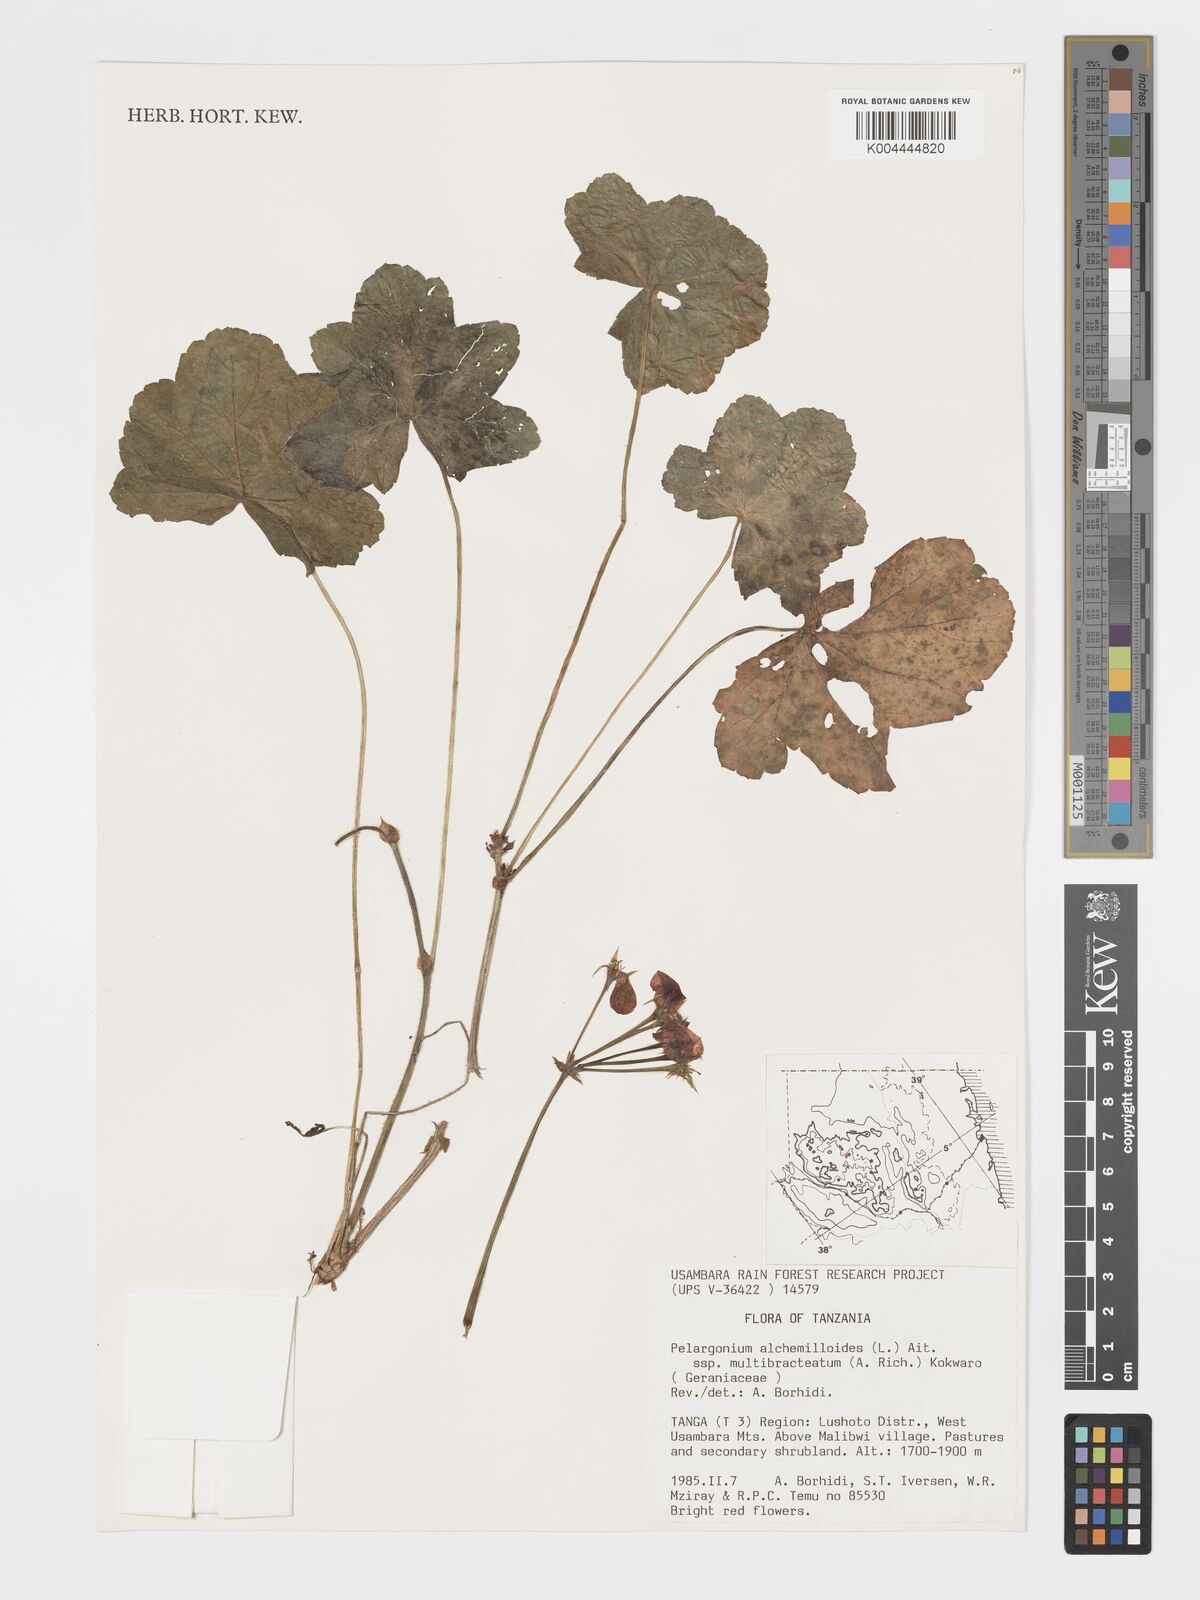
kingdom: Plantae
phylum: Tracheophyta
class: Magnoliopsida
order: Geraniales
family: Geraniaceae
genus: Pelargonium
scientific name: Pelargonium alchemilloides
